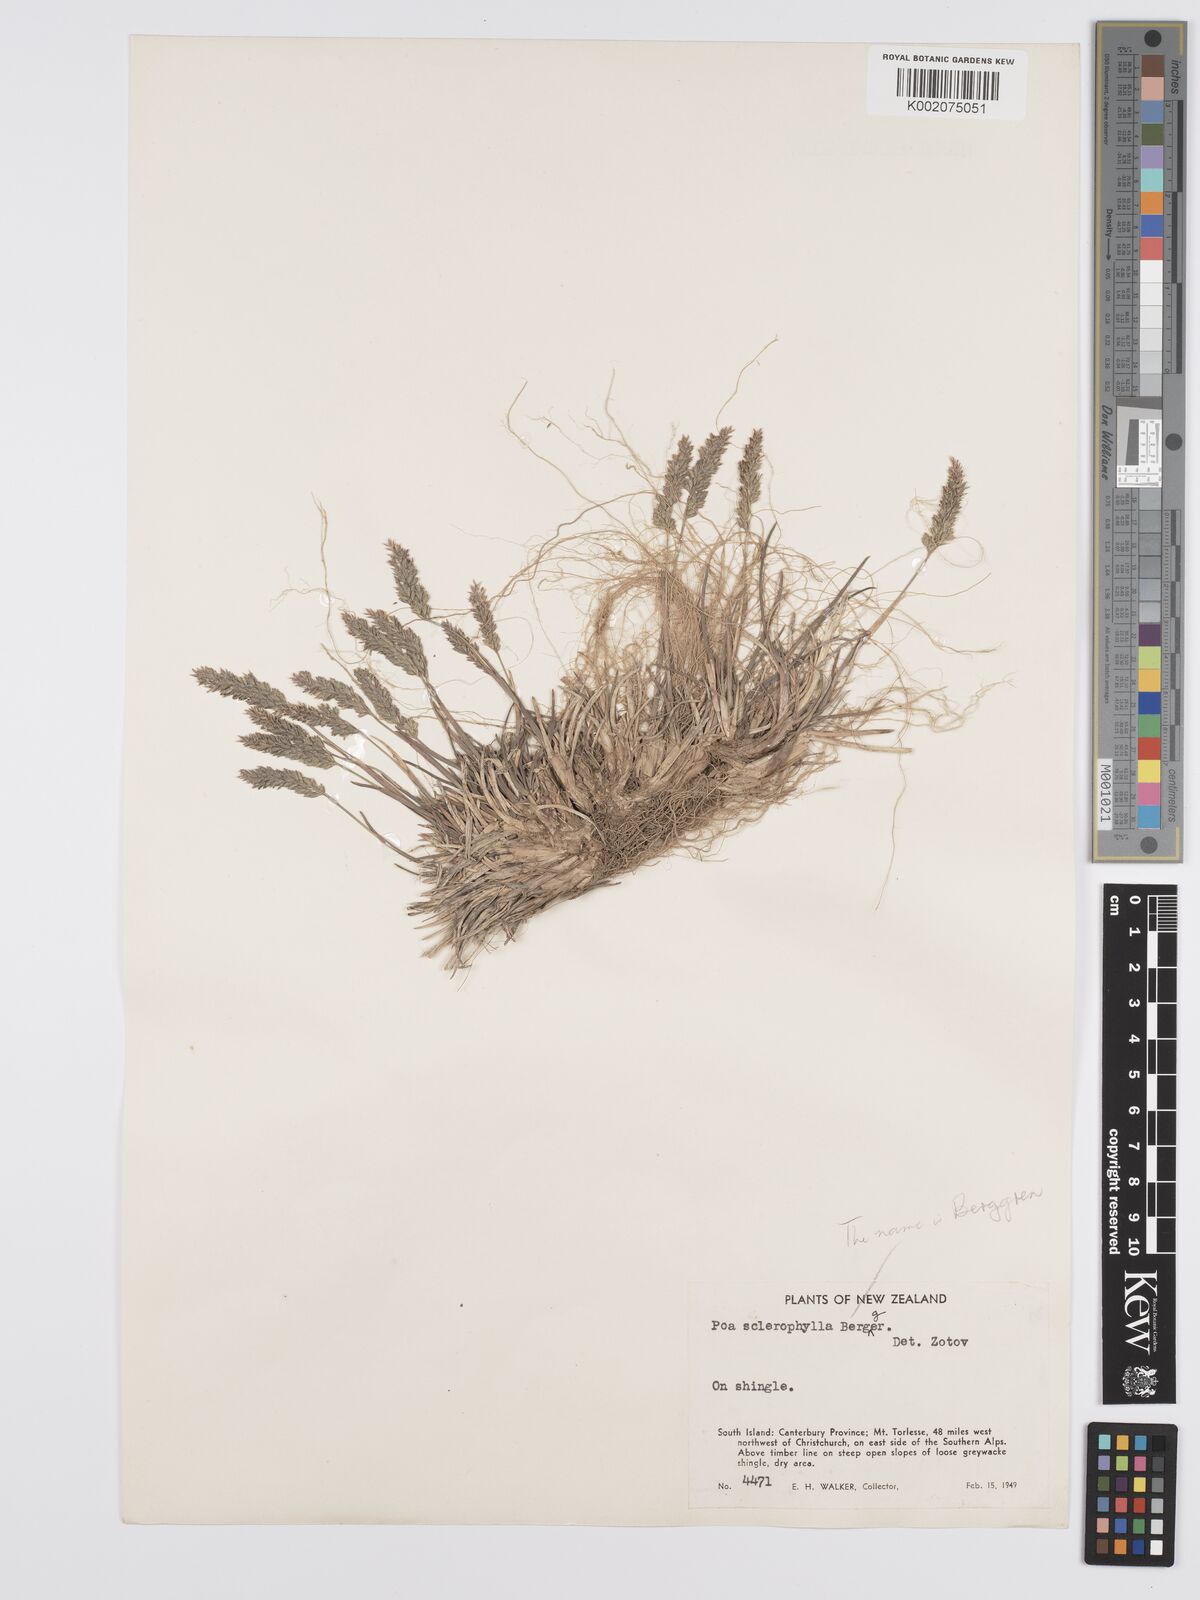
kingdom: Plantae
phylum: Tracheophyta
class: Liliopsida
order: Poales
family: Poaceae
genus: Poa
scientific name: Poa buchananii
